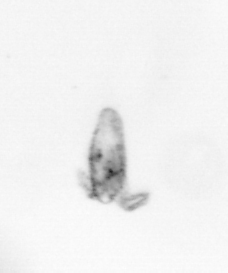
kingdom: Animalia
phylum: Arthropoda
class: Copepoda
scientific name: Copepoda
